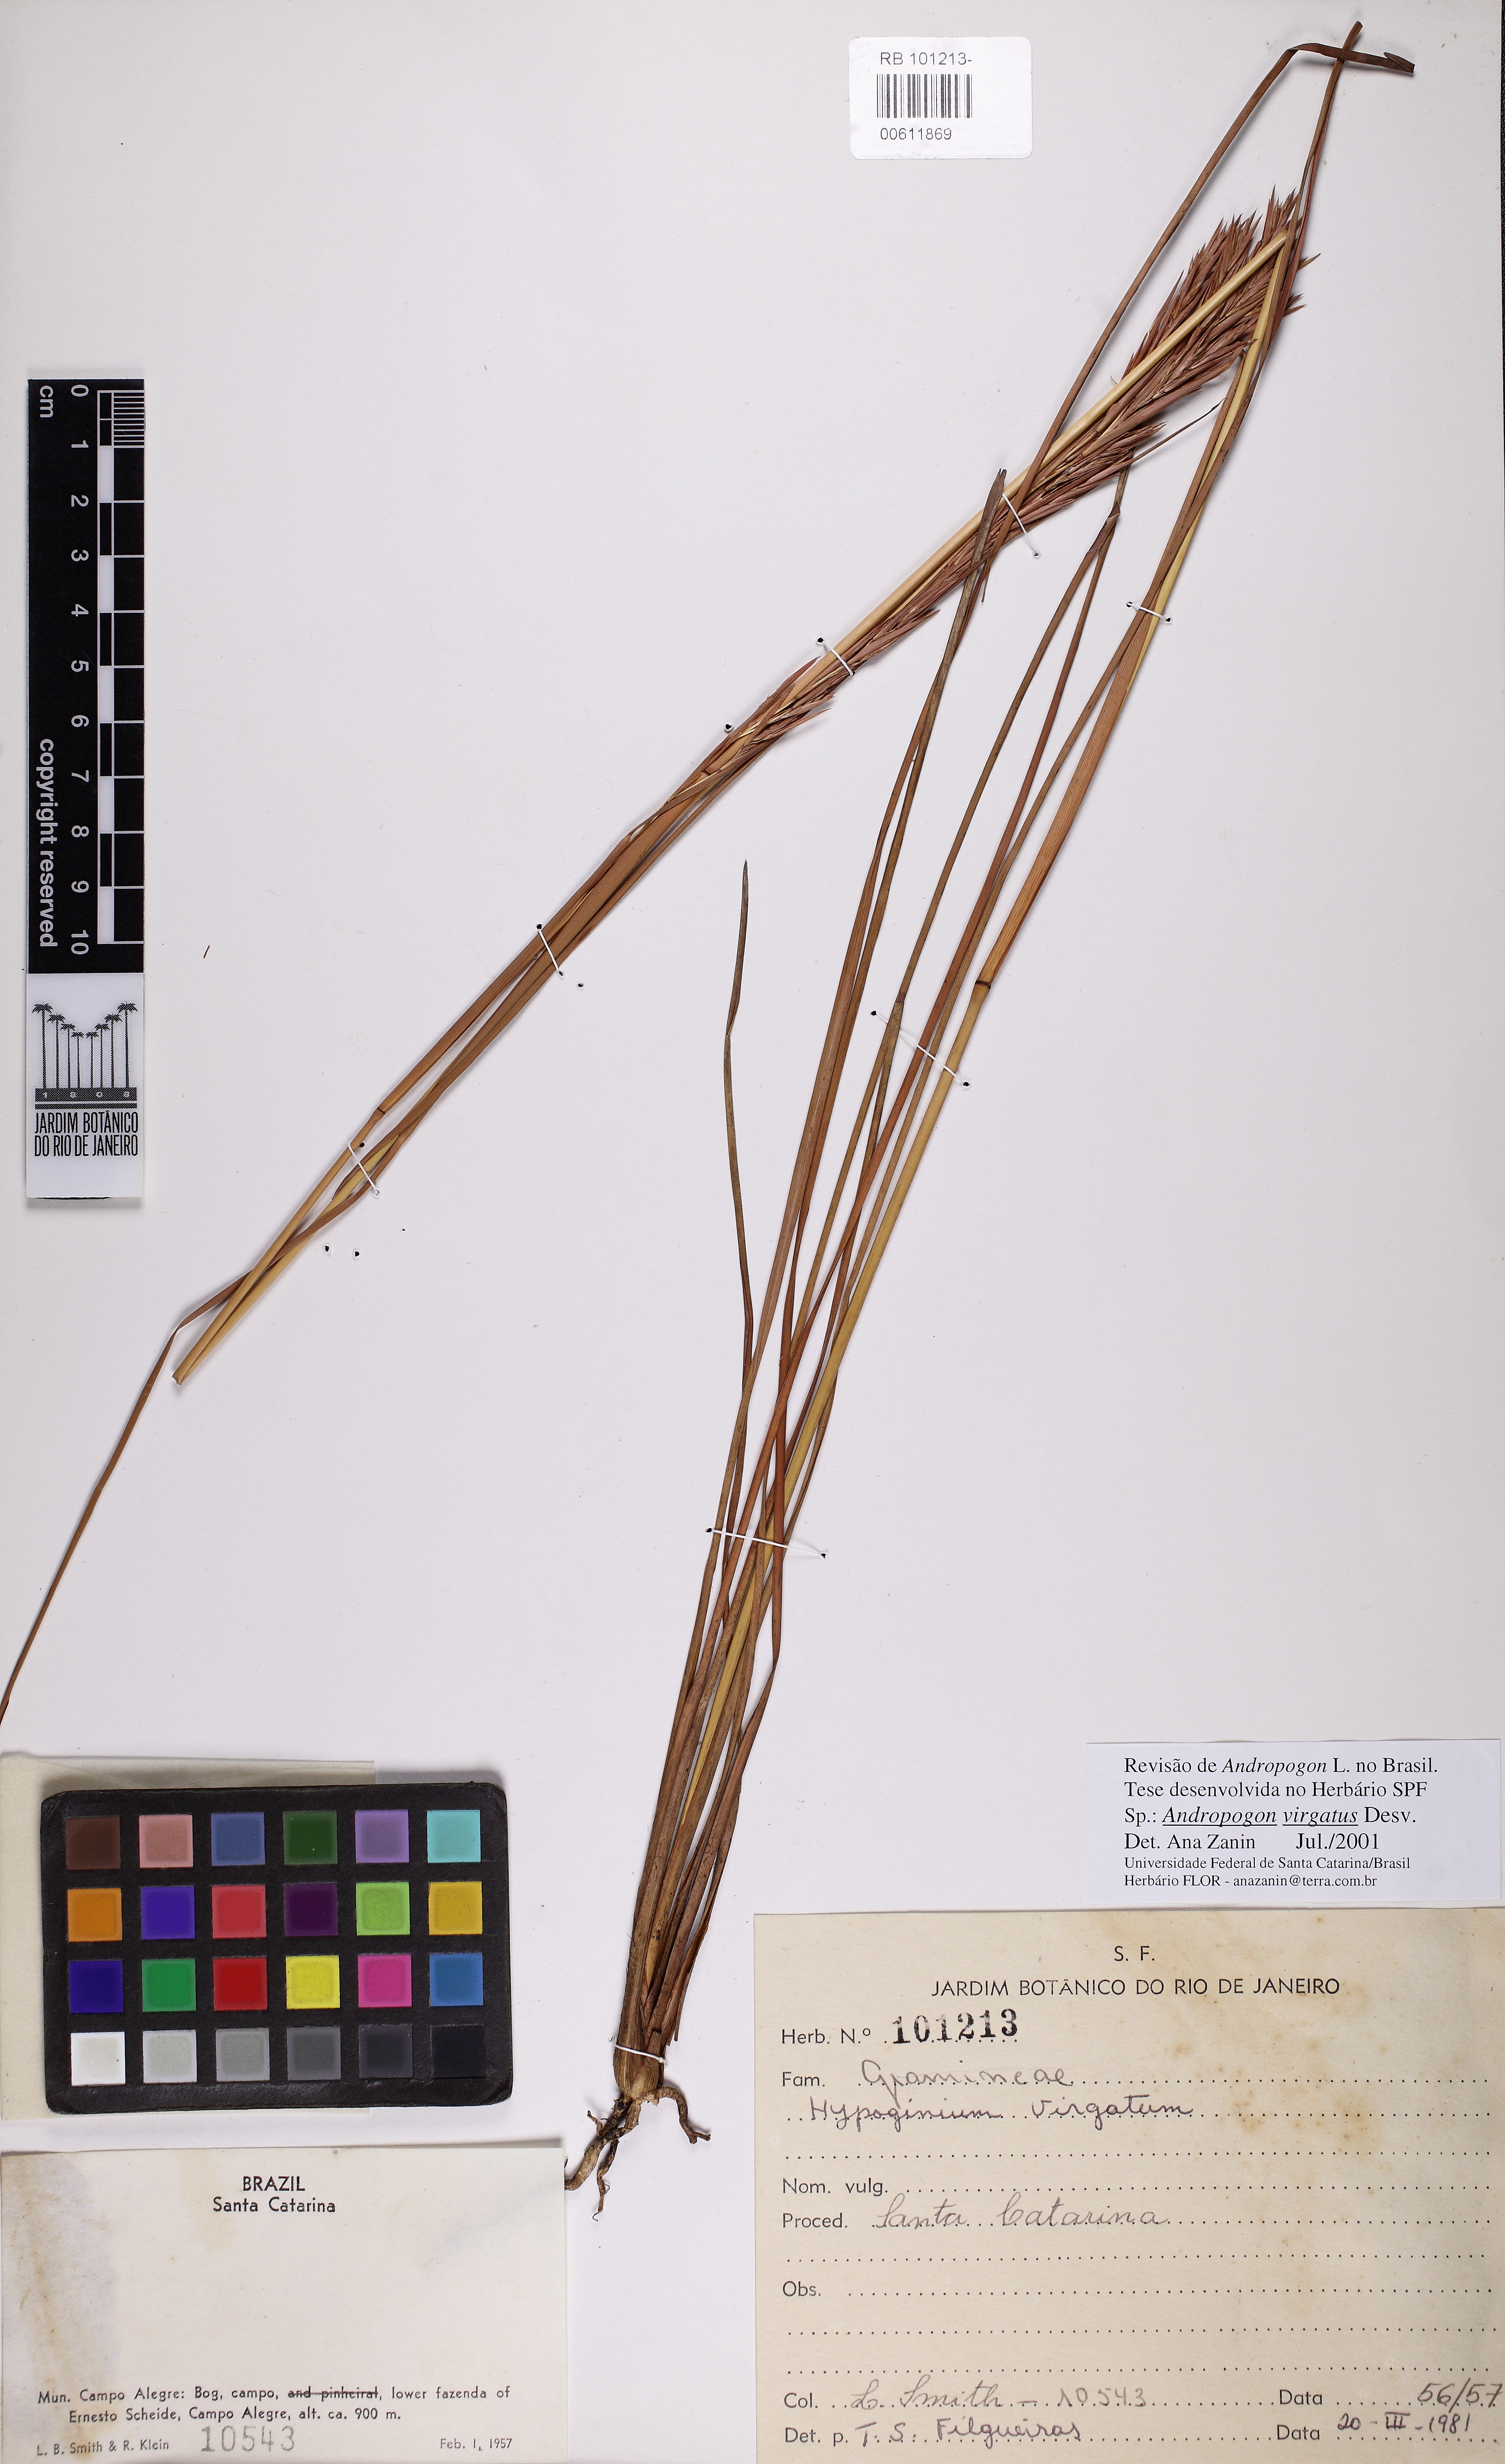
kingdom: Plantae
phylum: Tracheophyta
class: Liliopsida
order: Poales
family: Poaceae
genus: Andropogon
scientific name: Andropogon virgatus
